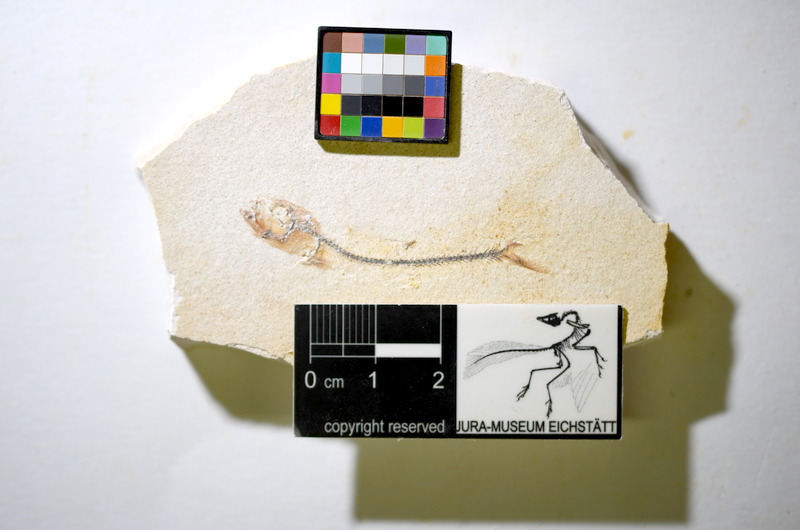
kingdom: Animalia
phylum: Chordata
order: Salmoniformes
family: Orthogonikleithridae
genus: Orthogonikleithrus
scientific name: Orthogonikleithrus hoelli
